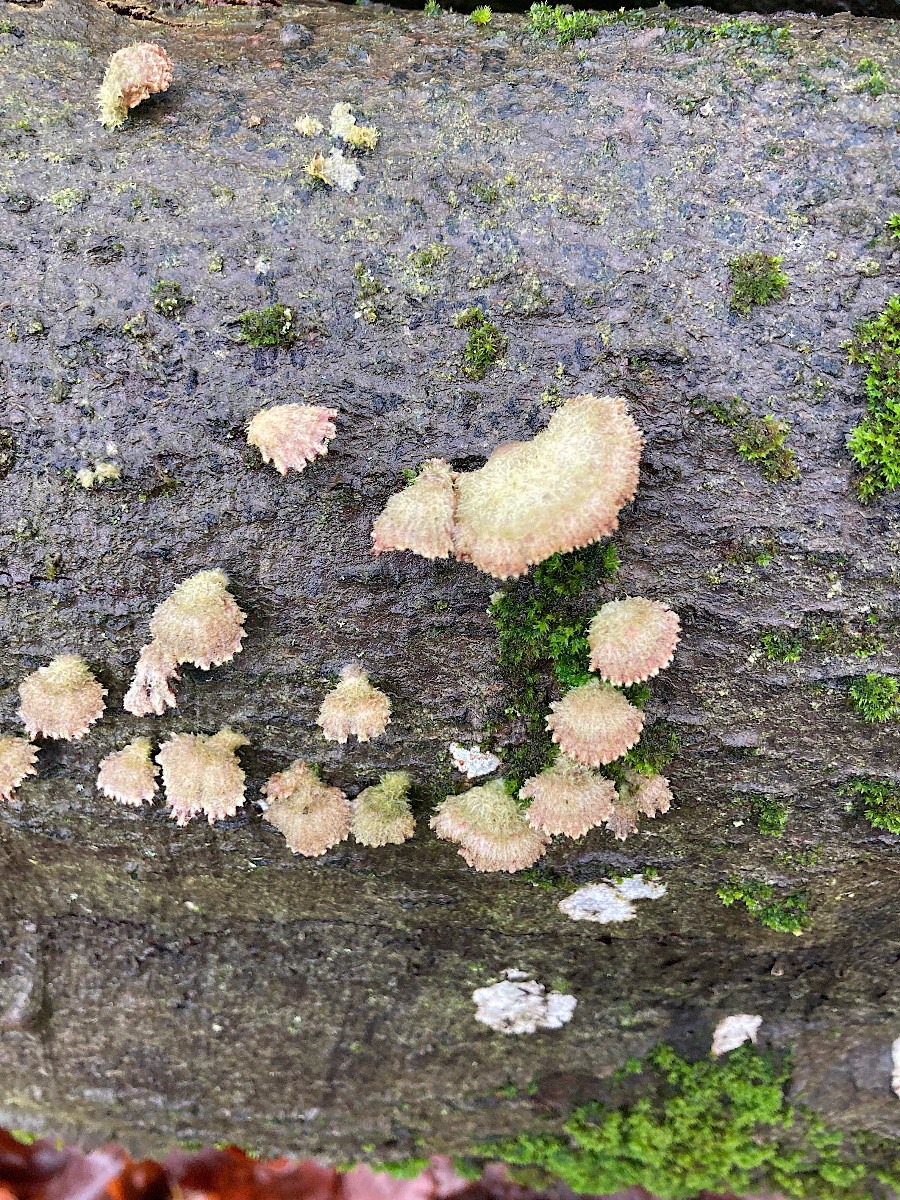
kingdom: Fungi
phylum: Basidiomycota
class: Agaricomycetes
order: Agaricales
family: Schizophyllaceae
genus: Schizophyllum
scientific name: Schizophyllum commune
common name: kløvblad
